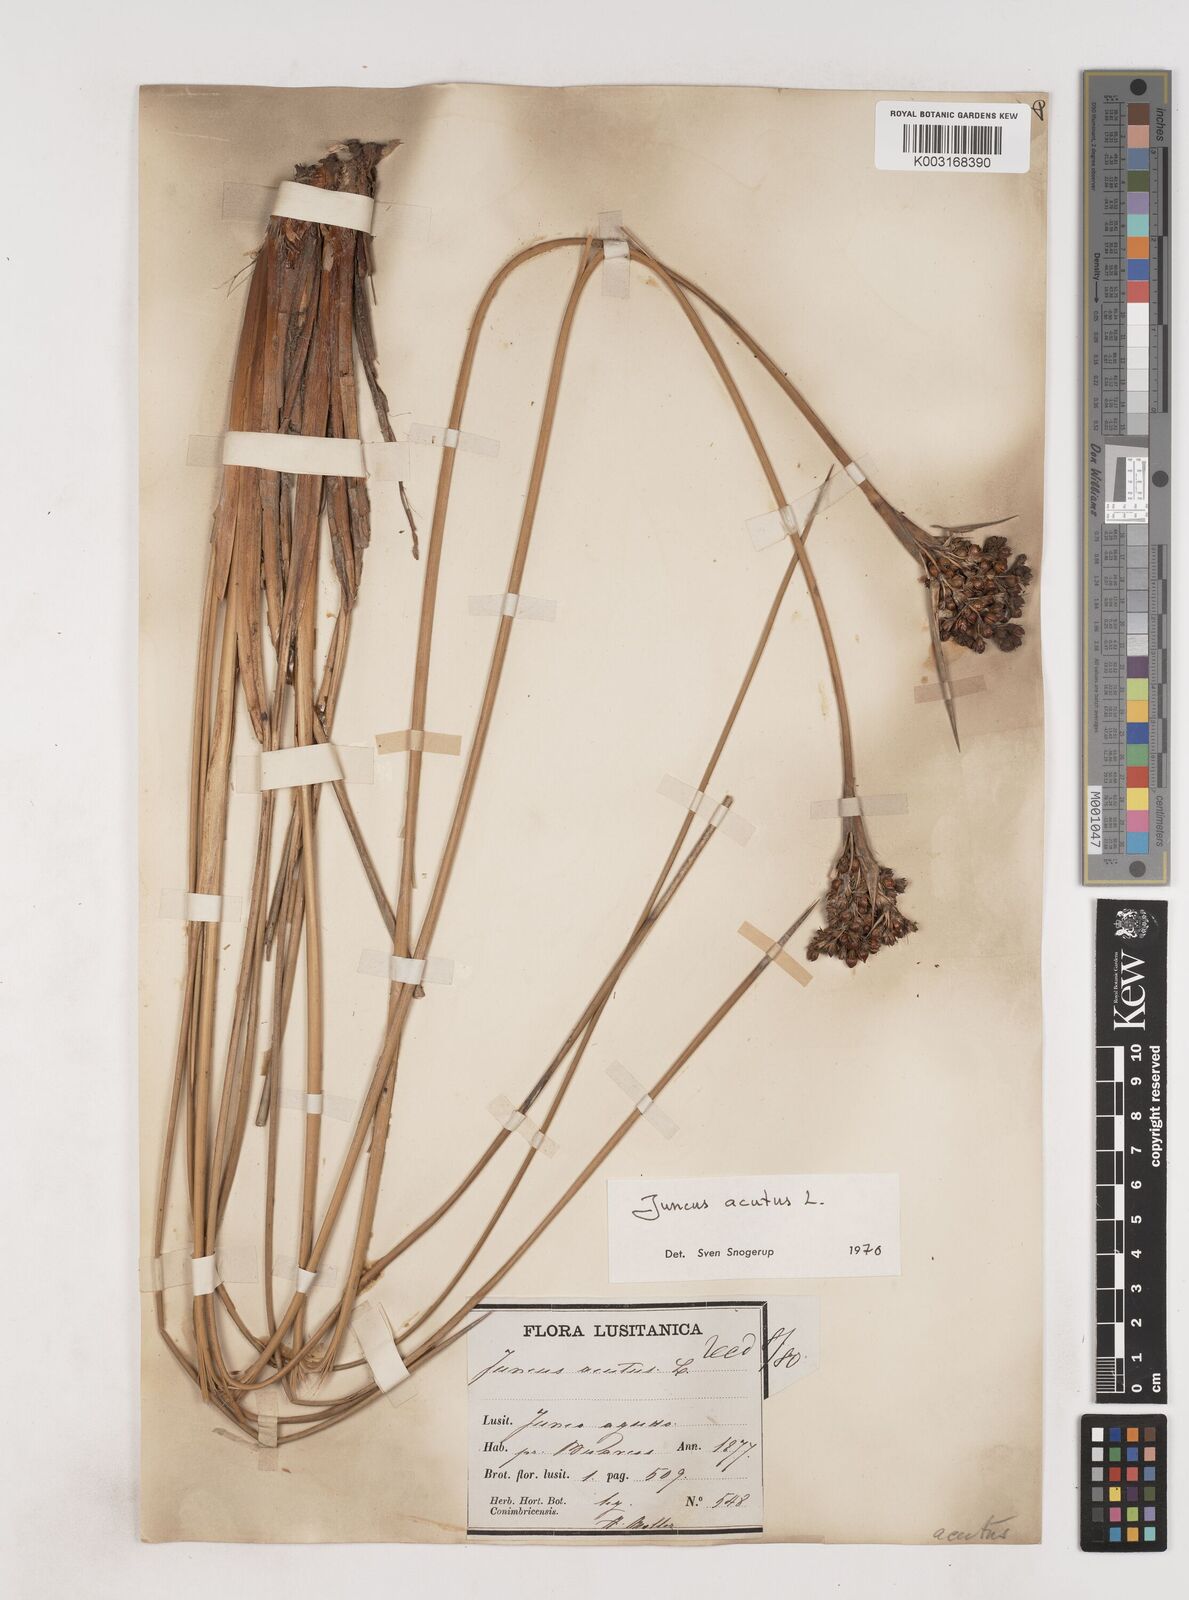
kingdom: Plantae
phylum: Tracheophyta
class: Liliopsida
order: Poales
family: Juncaceae
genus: Juncus
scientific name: Juncus acutus
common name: Sharp rush
